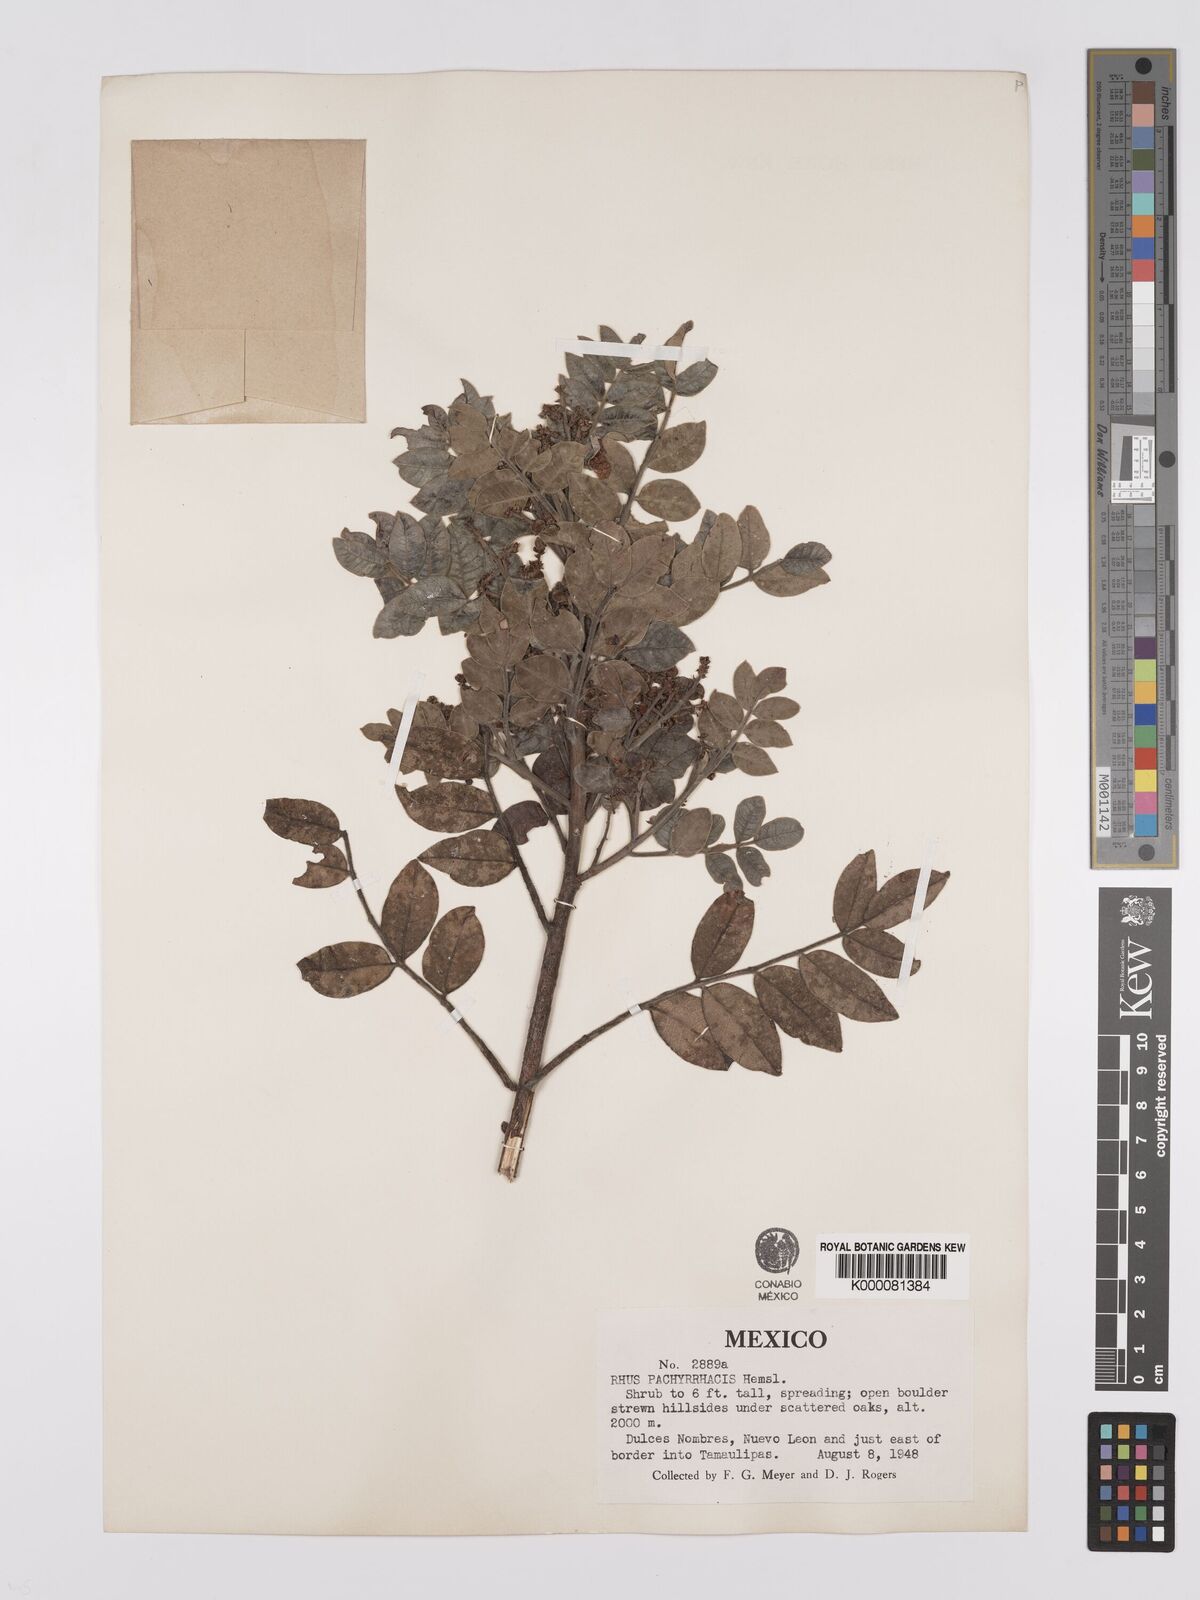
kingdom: Plantae
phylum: Tracheophyta
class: Magnoliopsida
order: Sapindales
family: Anacardiaceae
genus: Rhus
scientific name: Rhus pachyrrhachis
